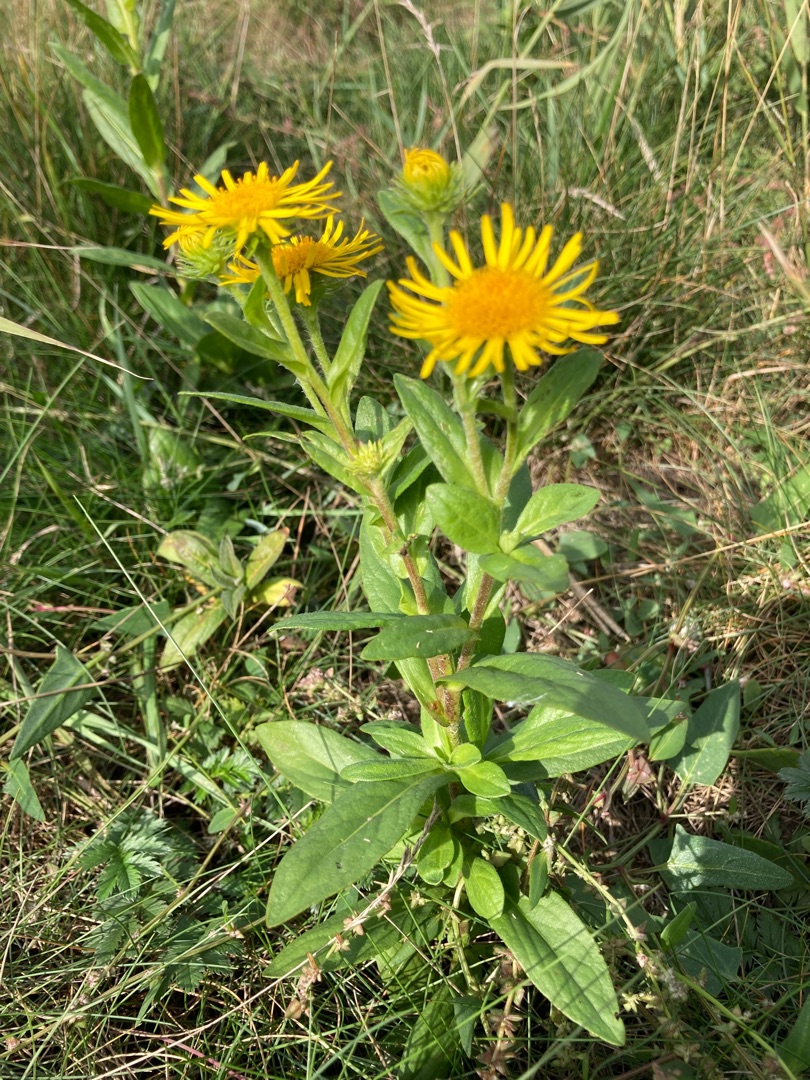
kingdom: Plantae
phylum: Tracheophyta
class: Magnoliopsida
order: Asterales
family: Asteraceae
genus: Pentanema
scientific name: Pentanema britannicum
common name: Soløje-alant
